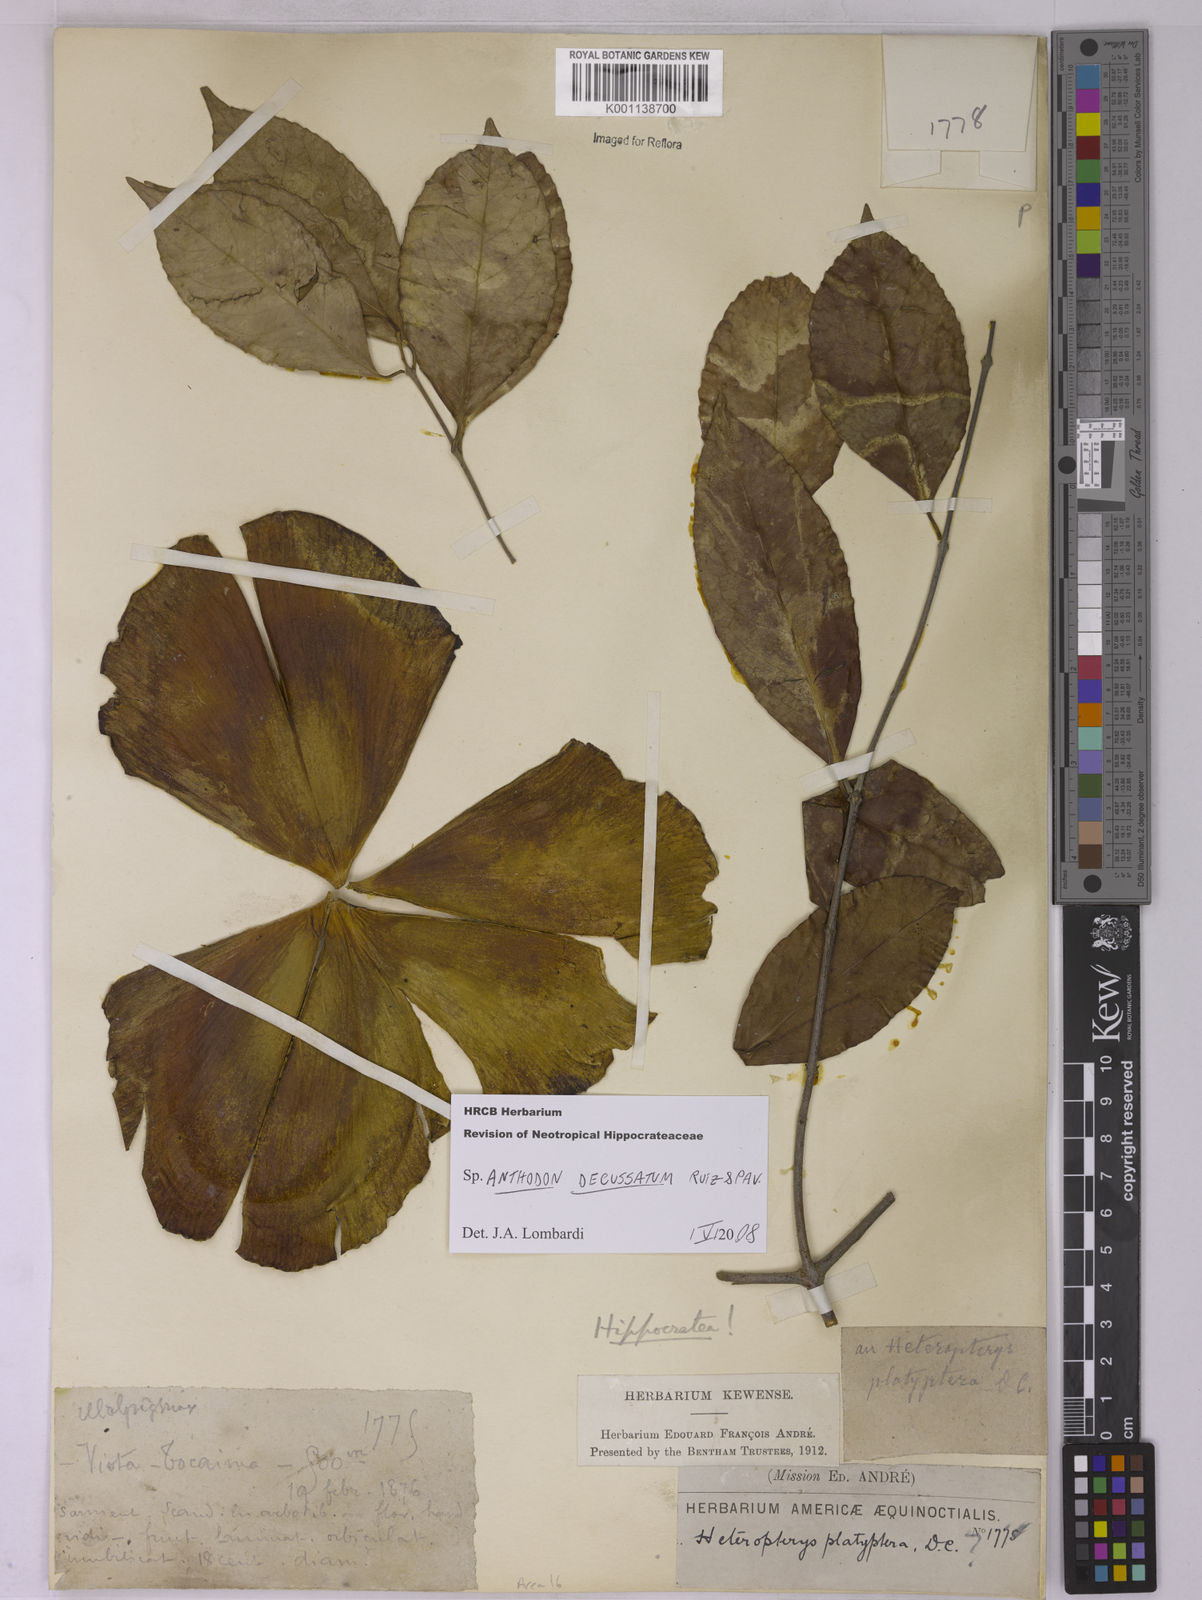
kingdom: Plantae
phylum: Tracheophyta
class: Magnoliopsida
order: Celastrales
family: Celastraceae
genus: Anthodon
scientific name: Anthodon decussatum
